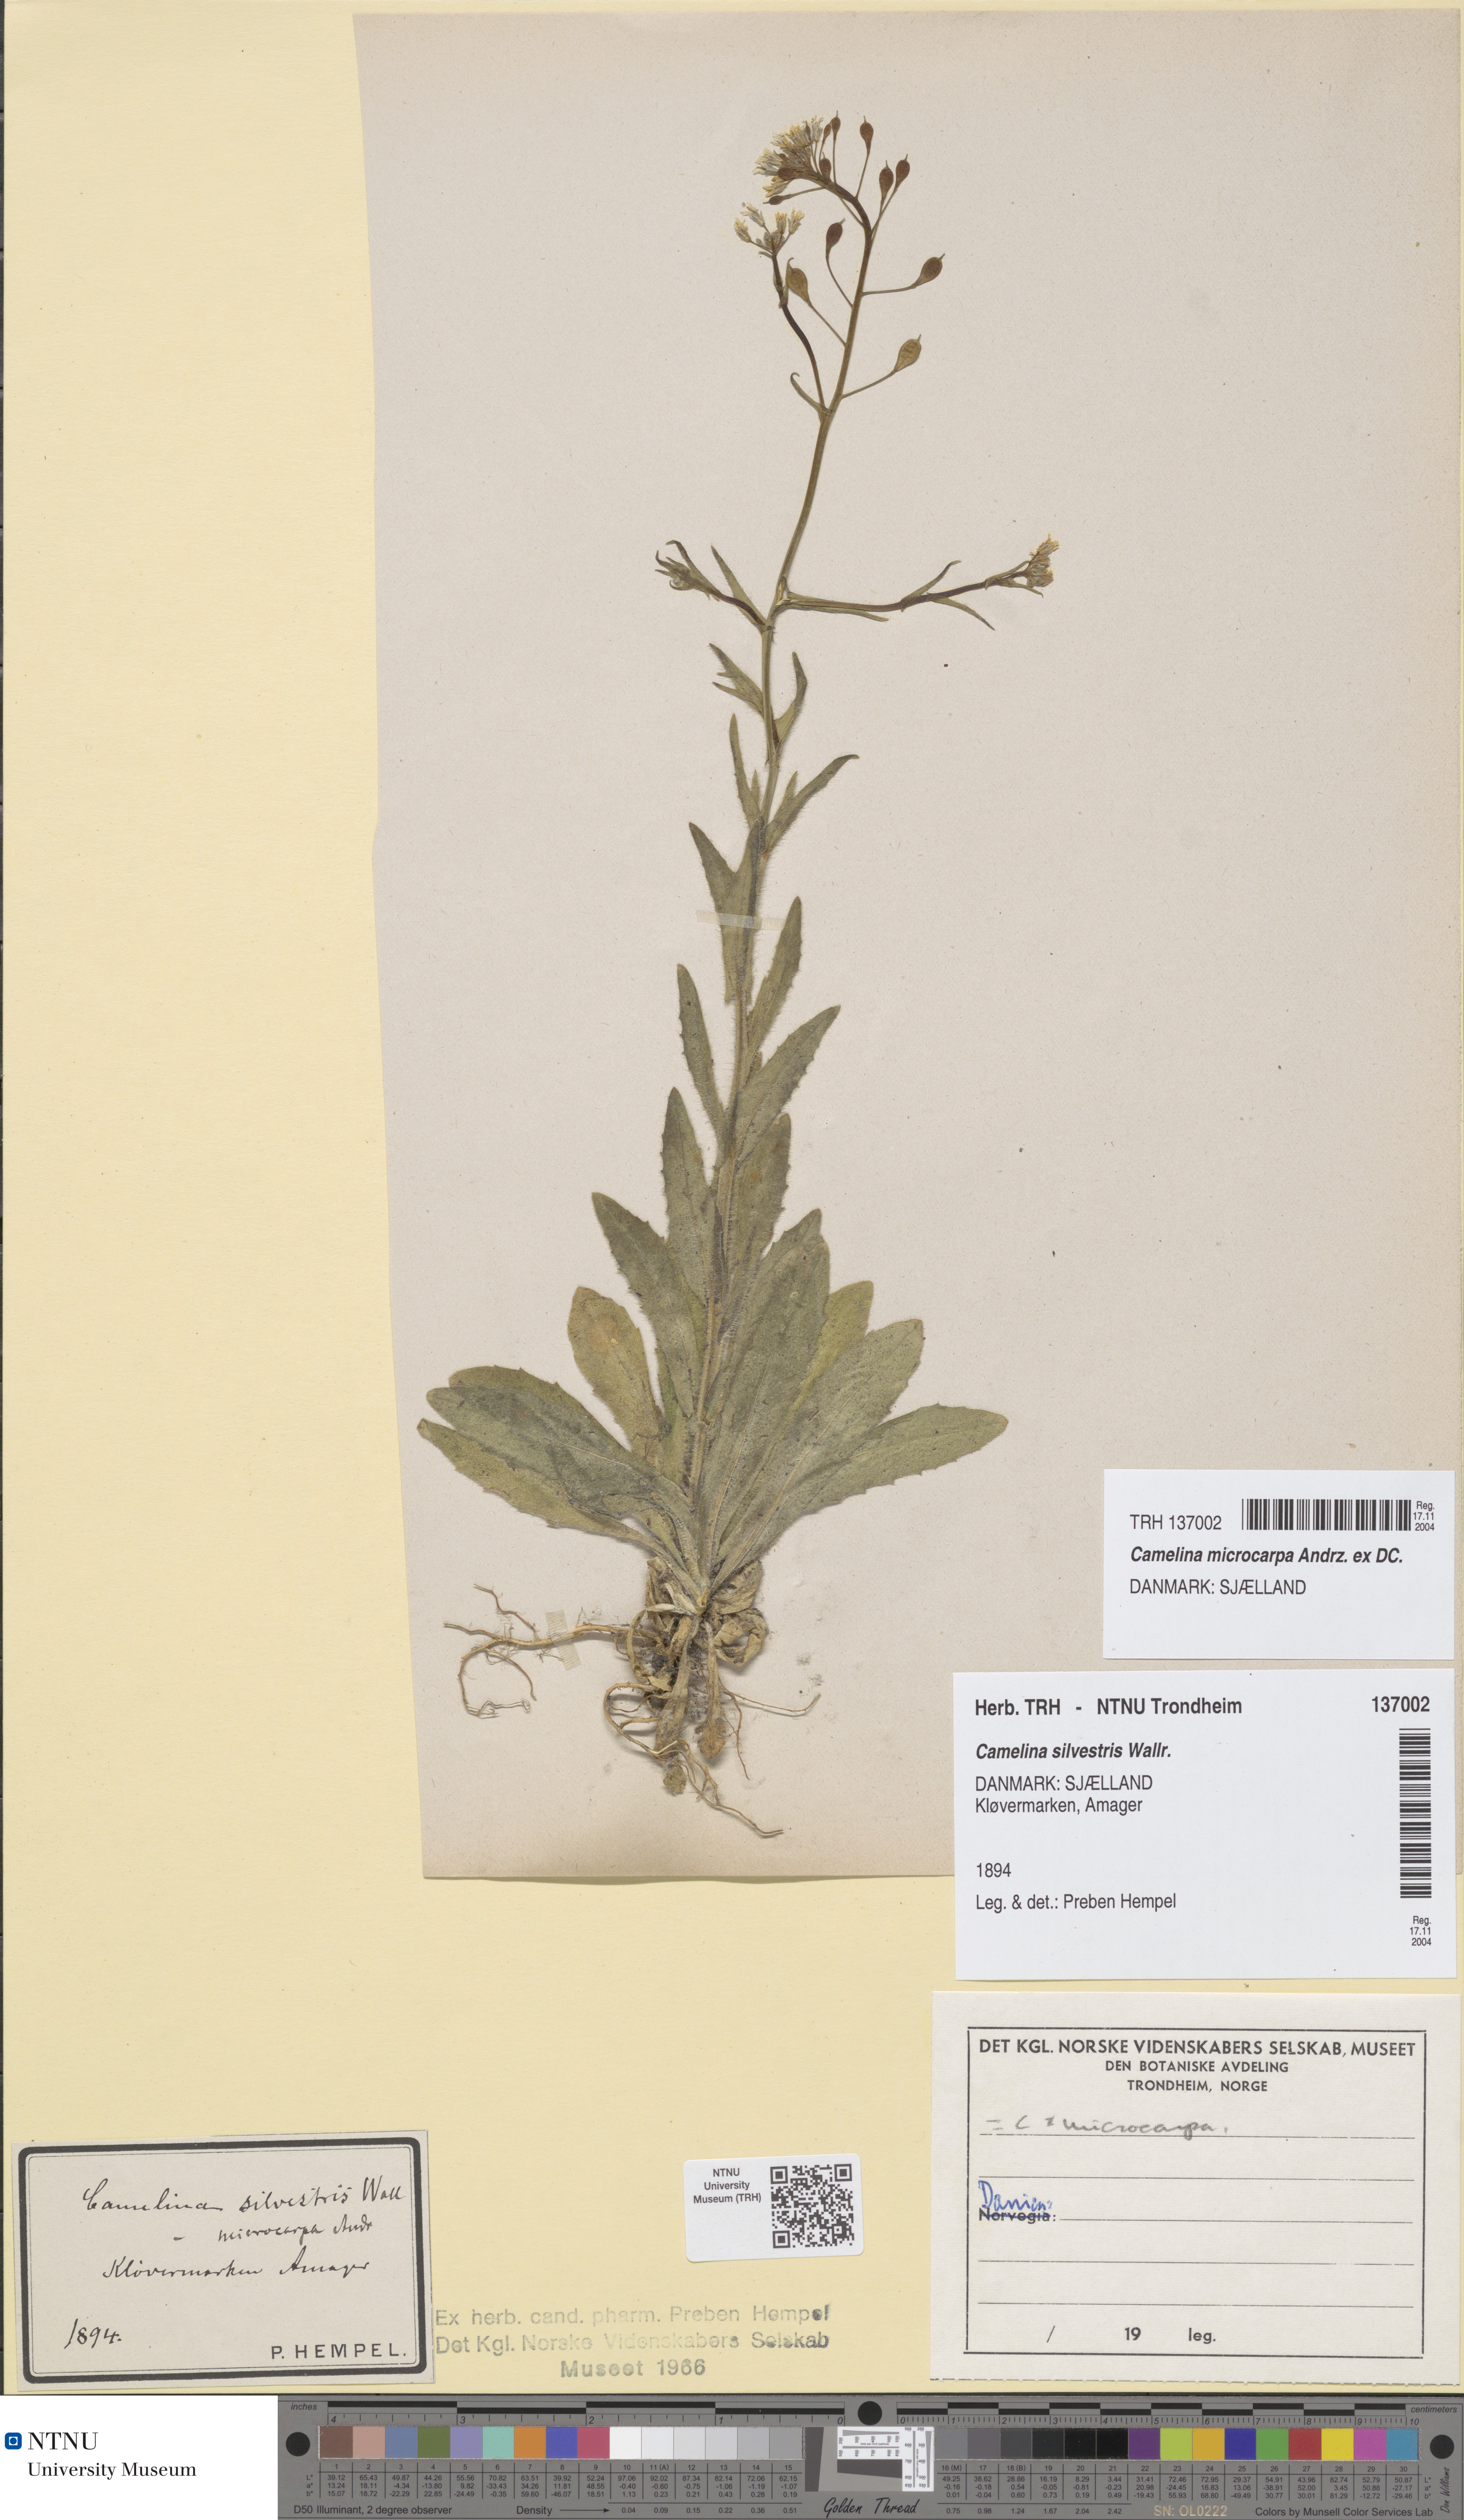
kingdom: Plantae
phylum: Tracheophyta
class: Magnoliopsida
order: Brassicales
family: Brassicaceae
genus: Camelina
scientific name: Camelina sativa
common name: Gold-of-pleasure
